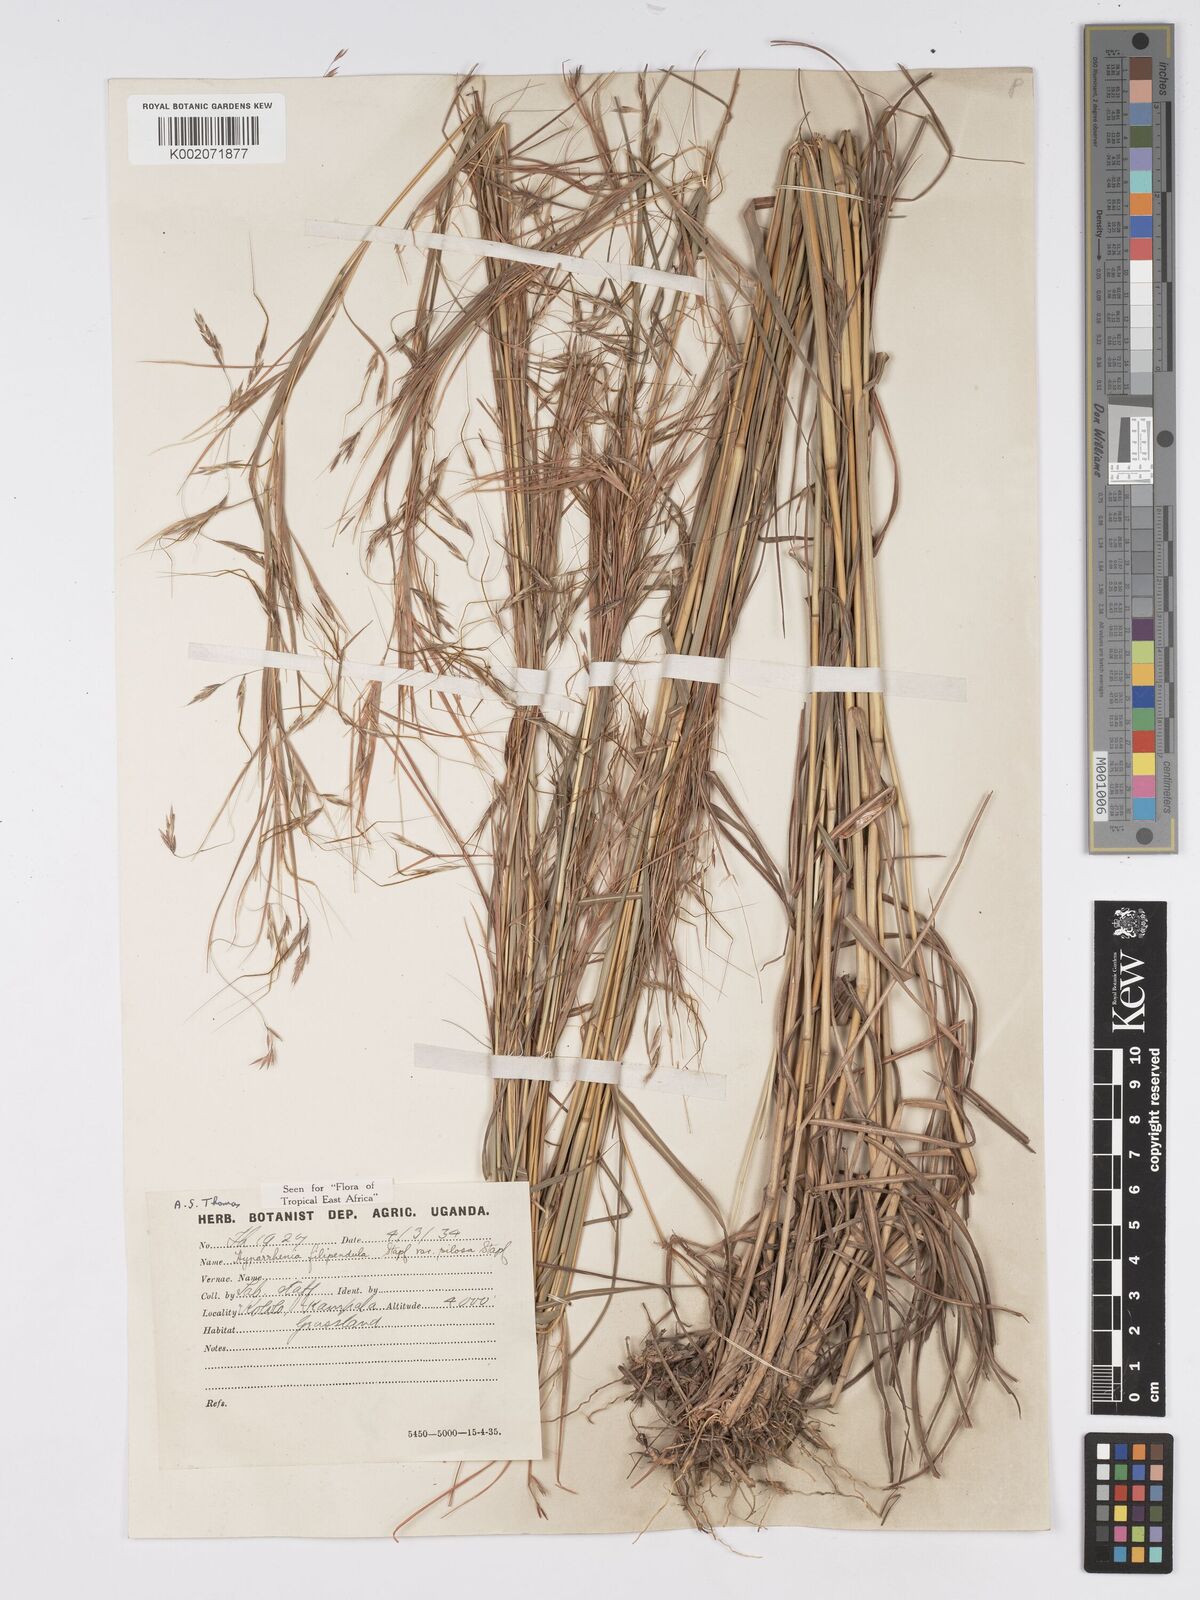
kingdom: Plantae
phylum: Tracheophyta
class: Liliopsida
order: Poales
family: Poaceae
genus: Hyparrhenia
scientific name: Hyparrhenia filipendula
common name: Tambookie grass
